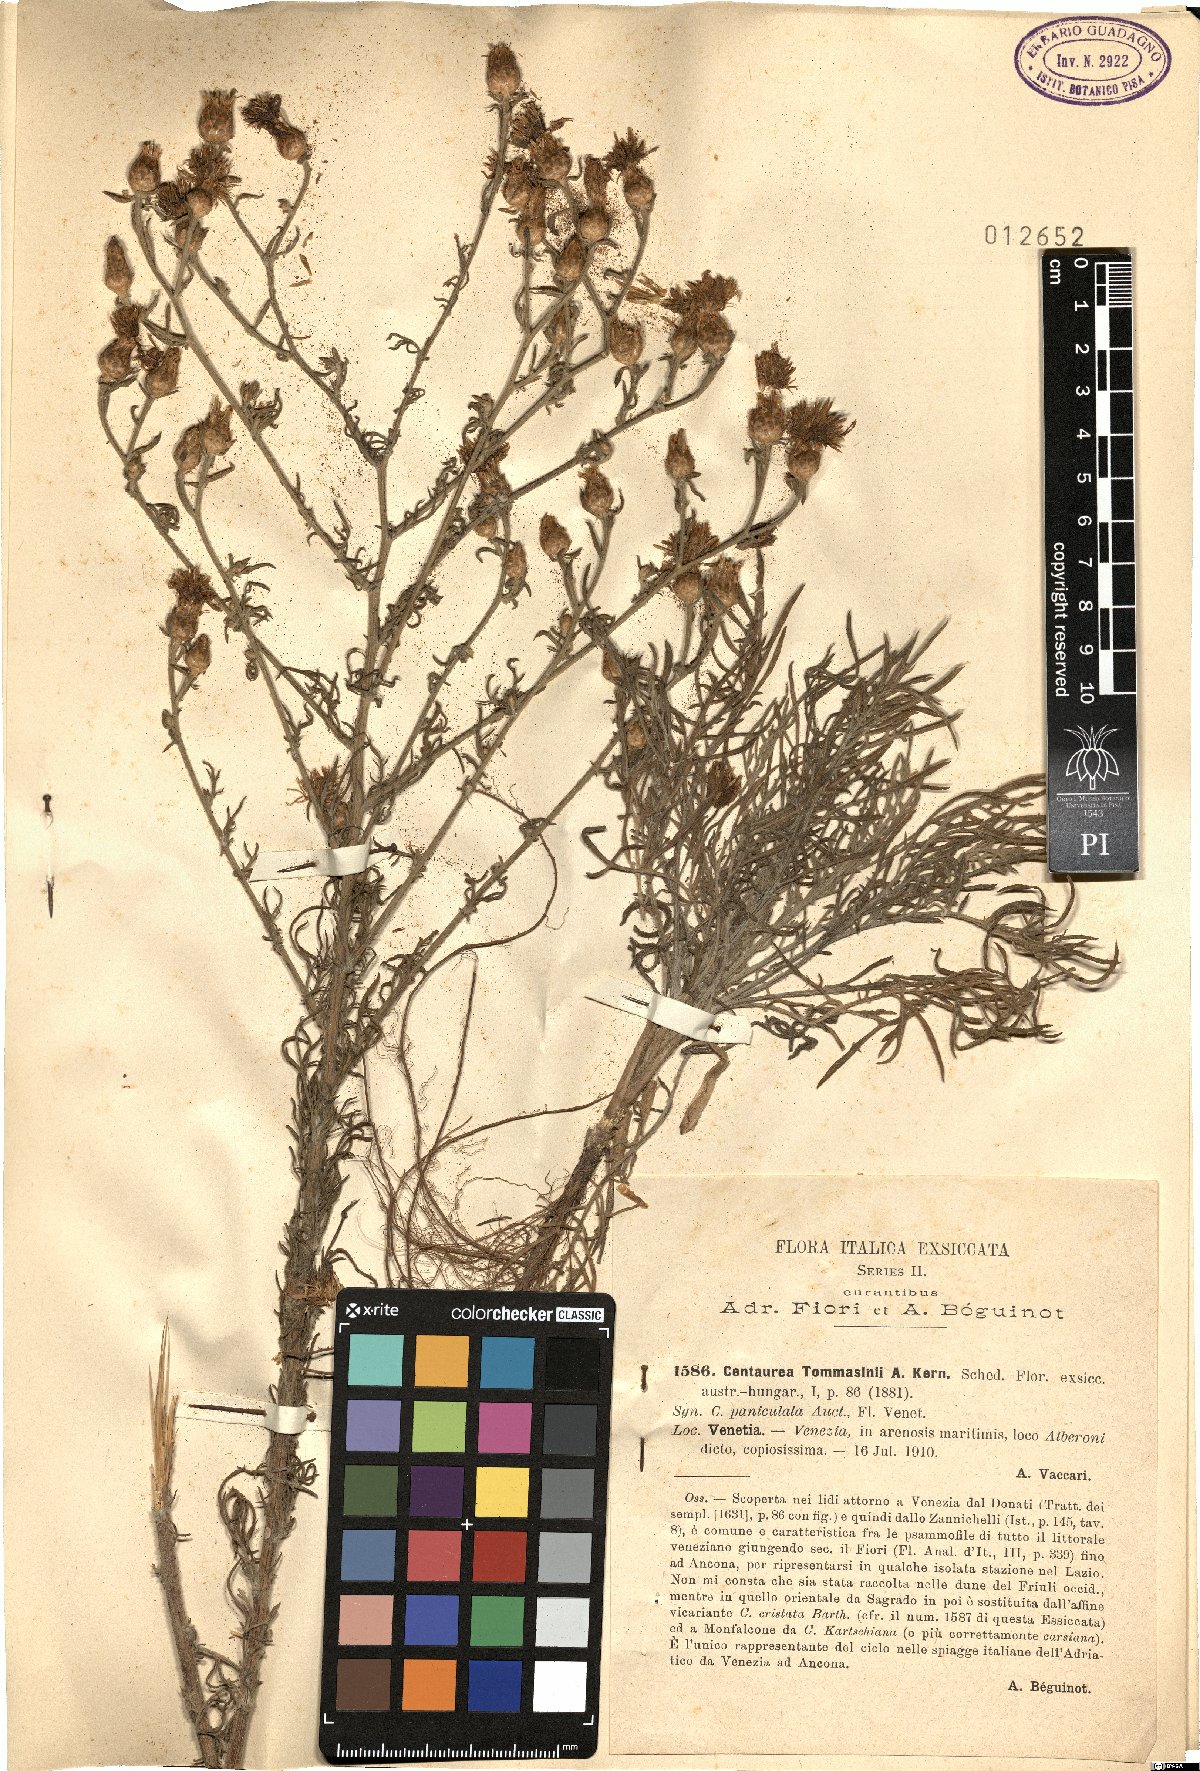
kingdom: Plantae
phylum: Tracheophyta
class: Magnoliopsida
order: Asterales
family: Asteraceae
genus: Centaurea
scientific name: Centaurea tommasinii
